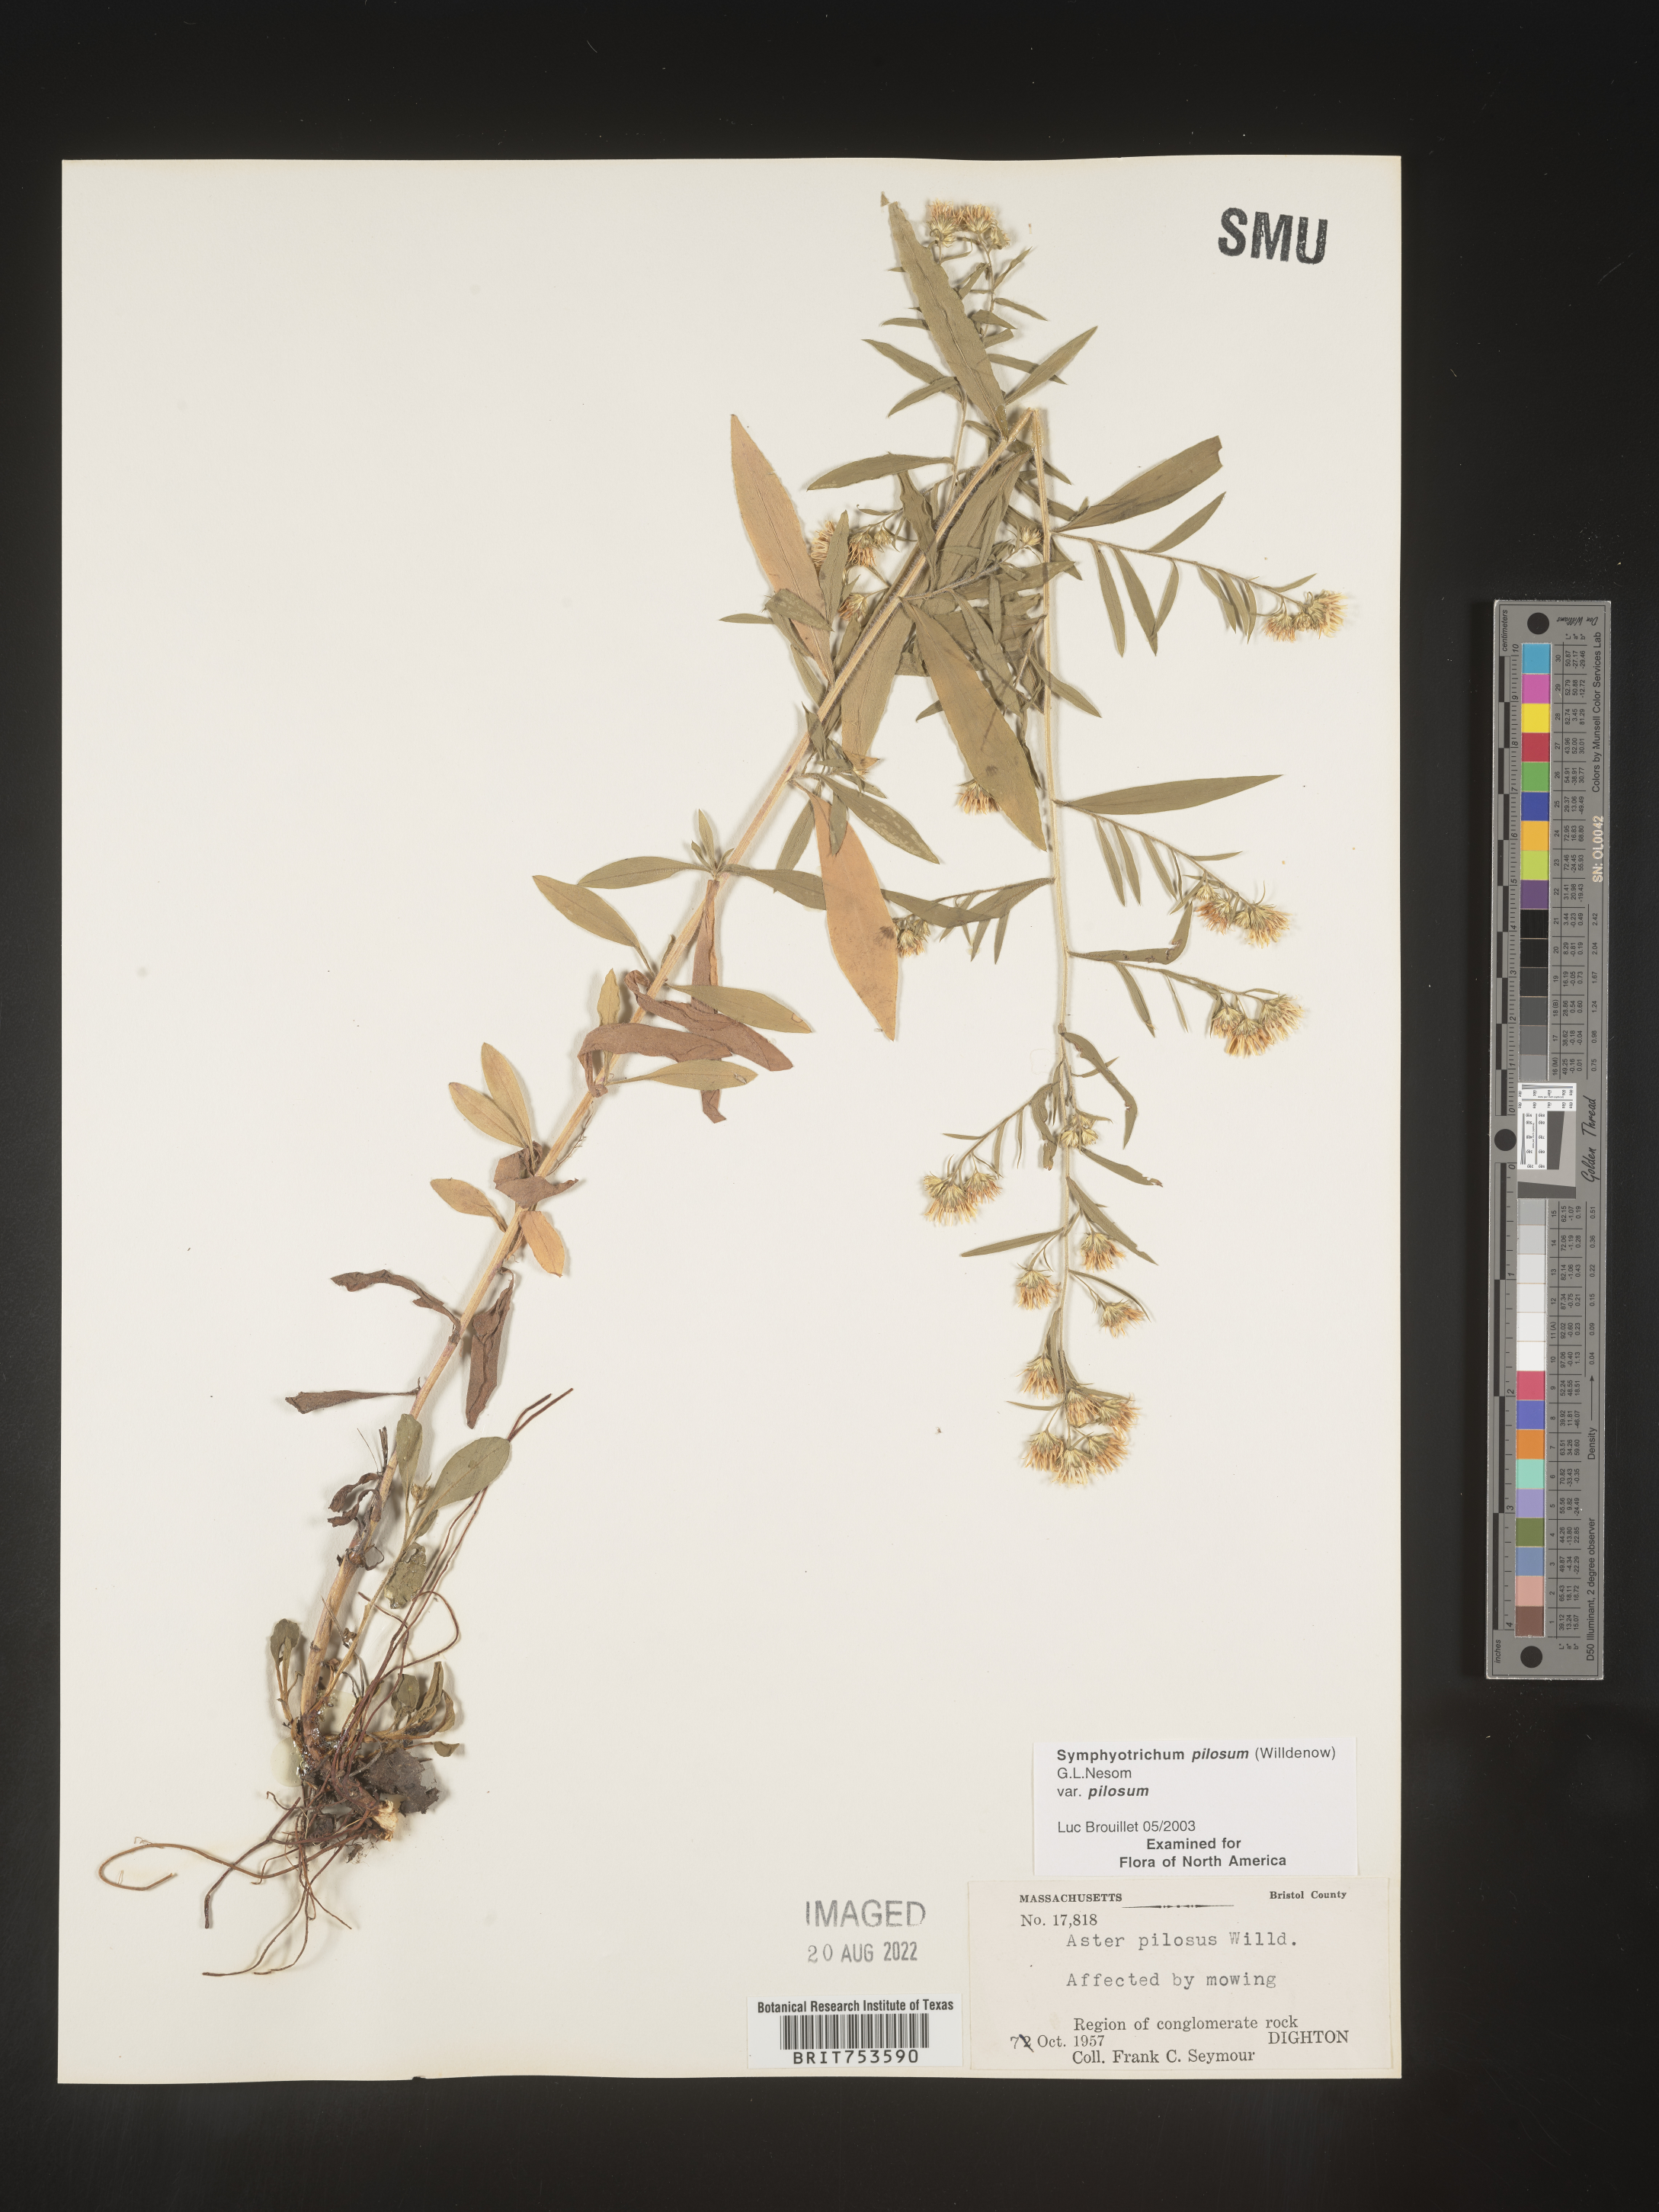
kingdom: Plantae
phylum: Tracheophyta
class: Magnoliopsida
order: Asterales
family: Asteraceae
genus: Symphyotrichum
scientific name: Symphyotrichum pilosum
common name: Awl aster
